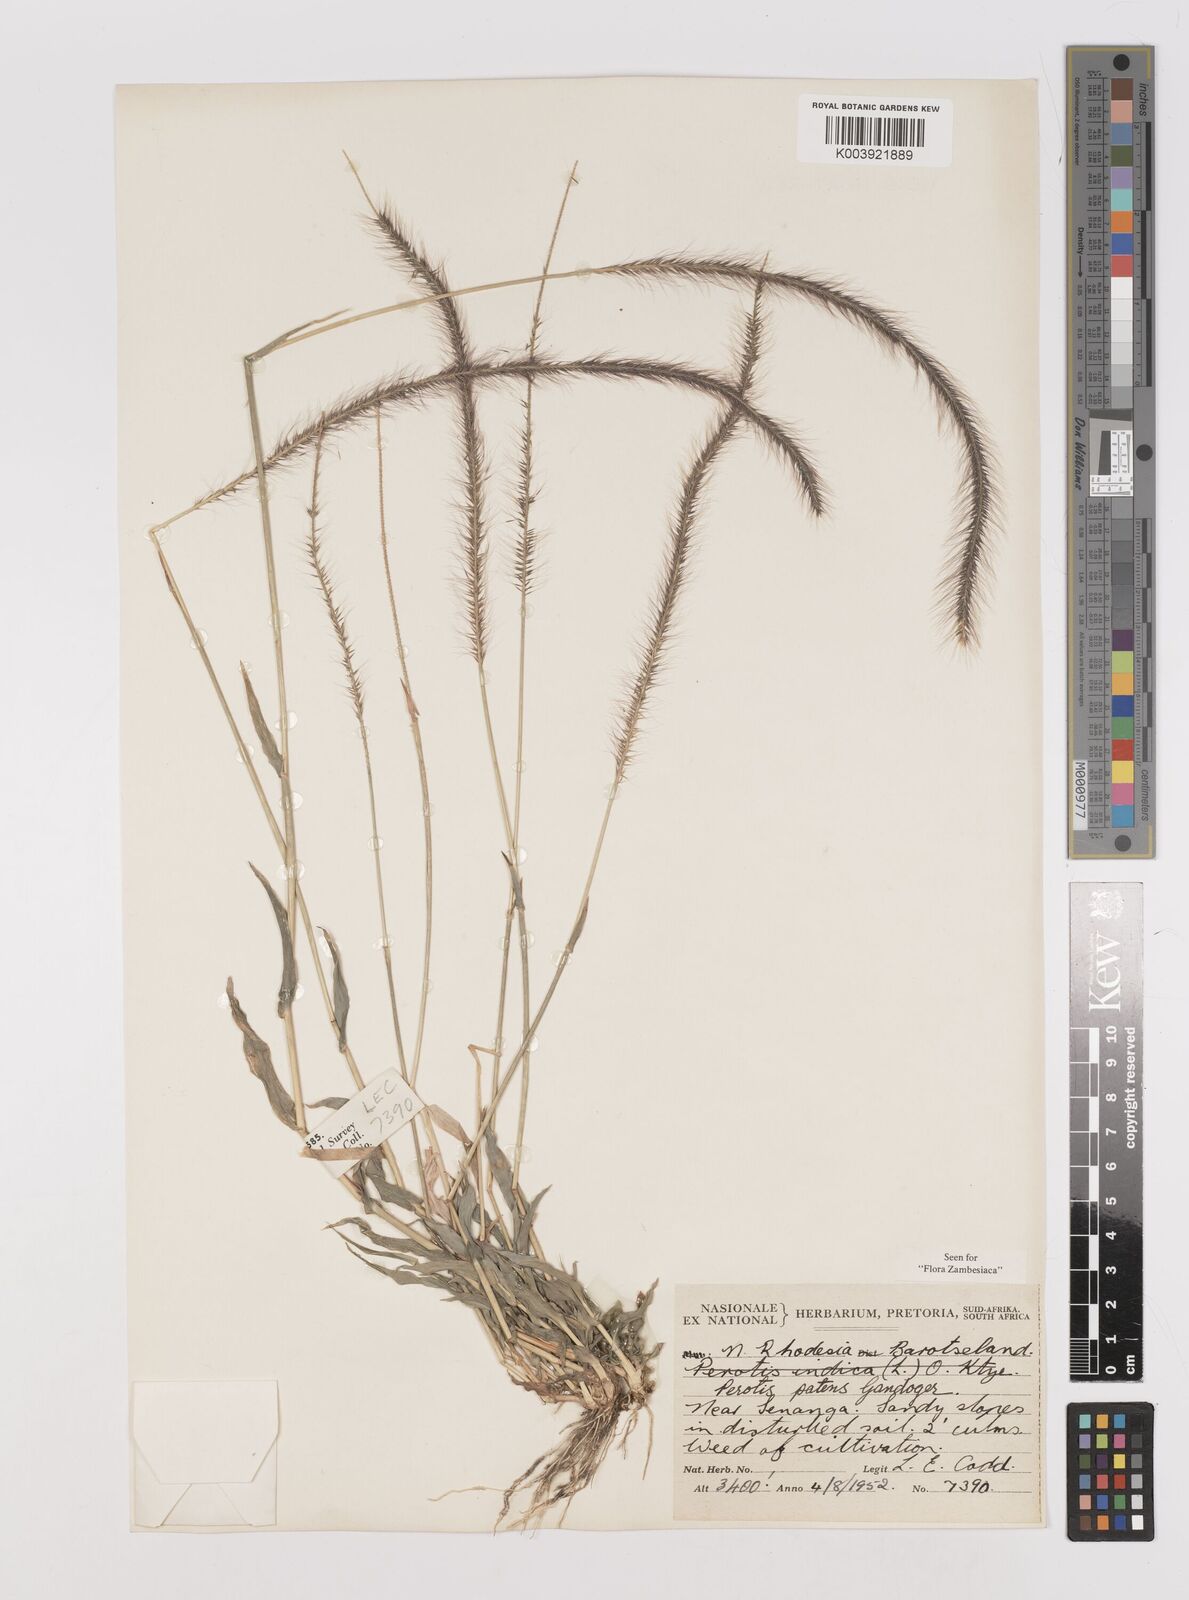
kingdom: Plantae
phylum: Tracheophyta
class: Liliopsida
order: Poales
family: Poaceae
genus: Perotis
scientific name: Perotis patens
